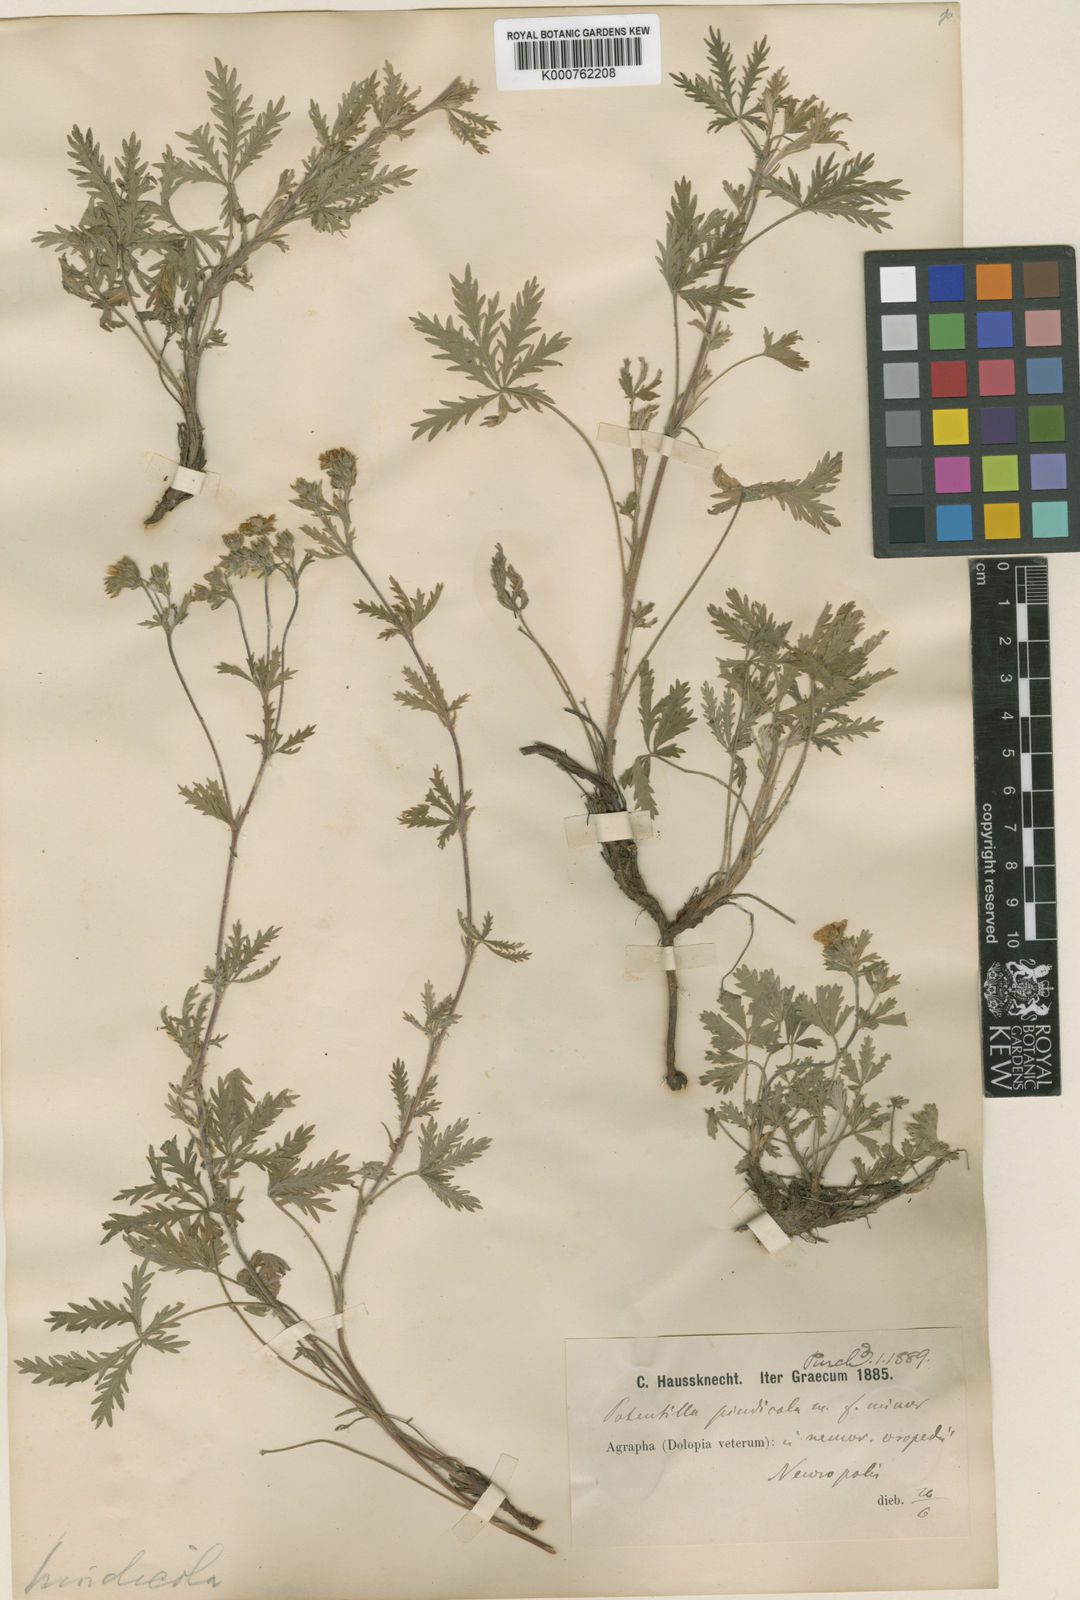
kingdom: Plantae
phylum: Tracheophyta
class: Magnoliopsida
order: Rosales
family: Rosaceae
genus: Potentilla
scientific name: Potentilla
